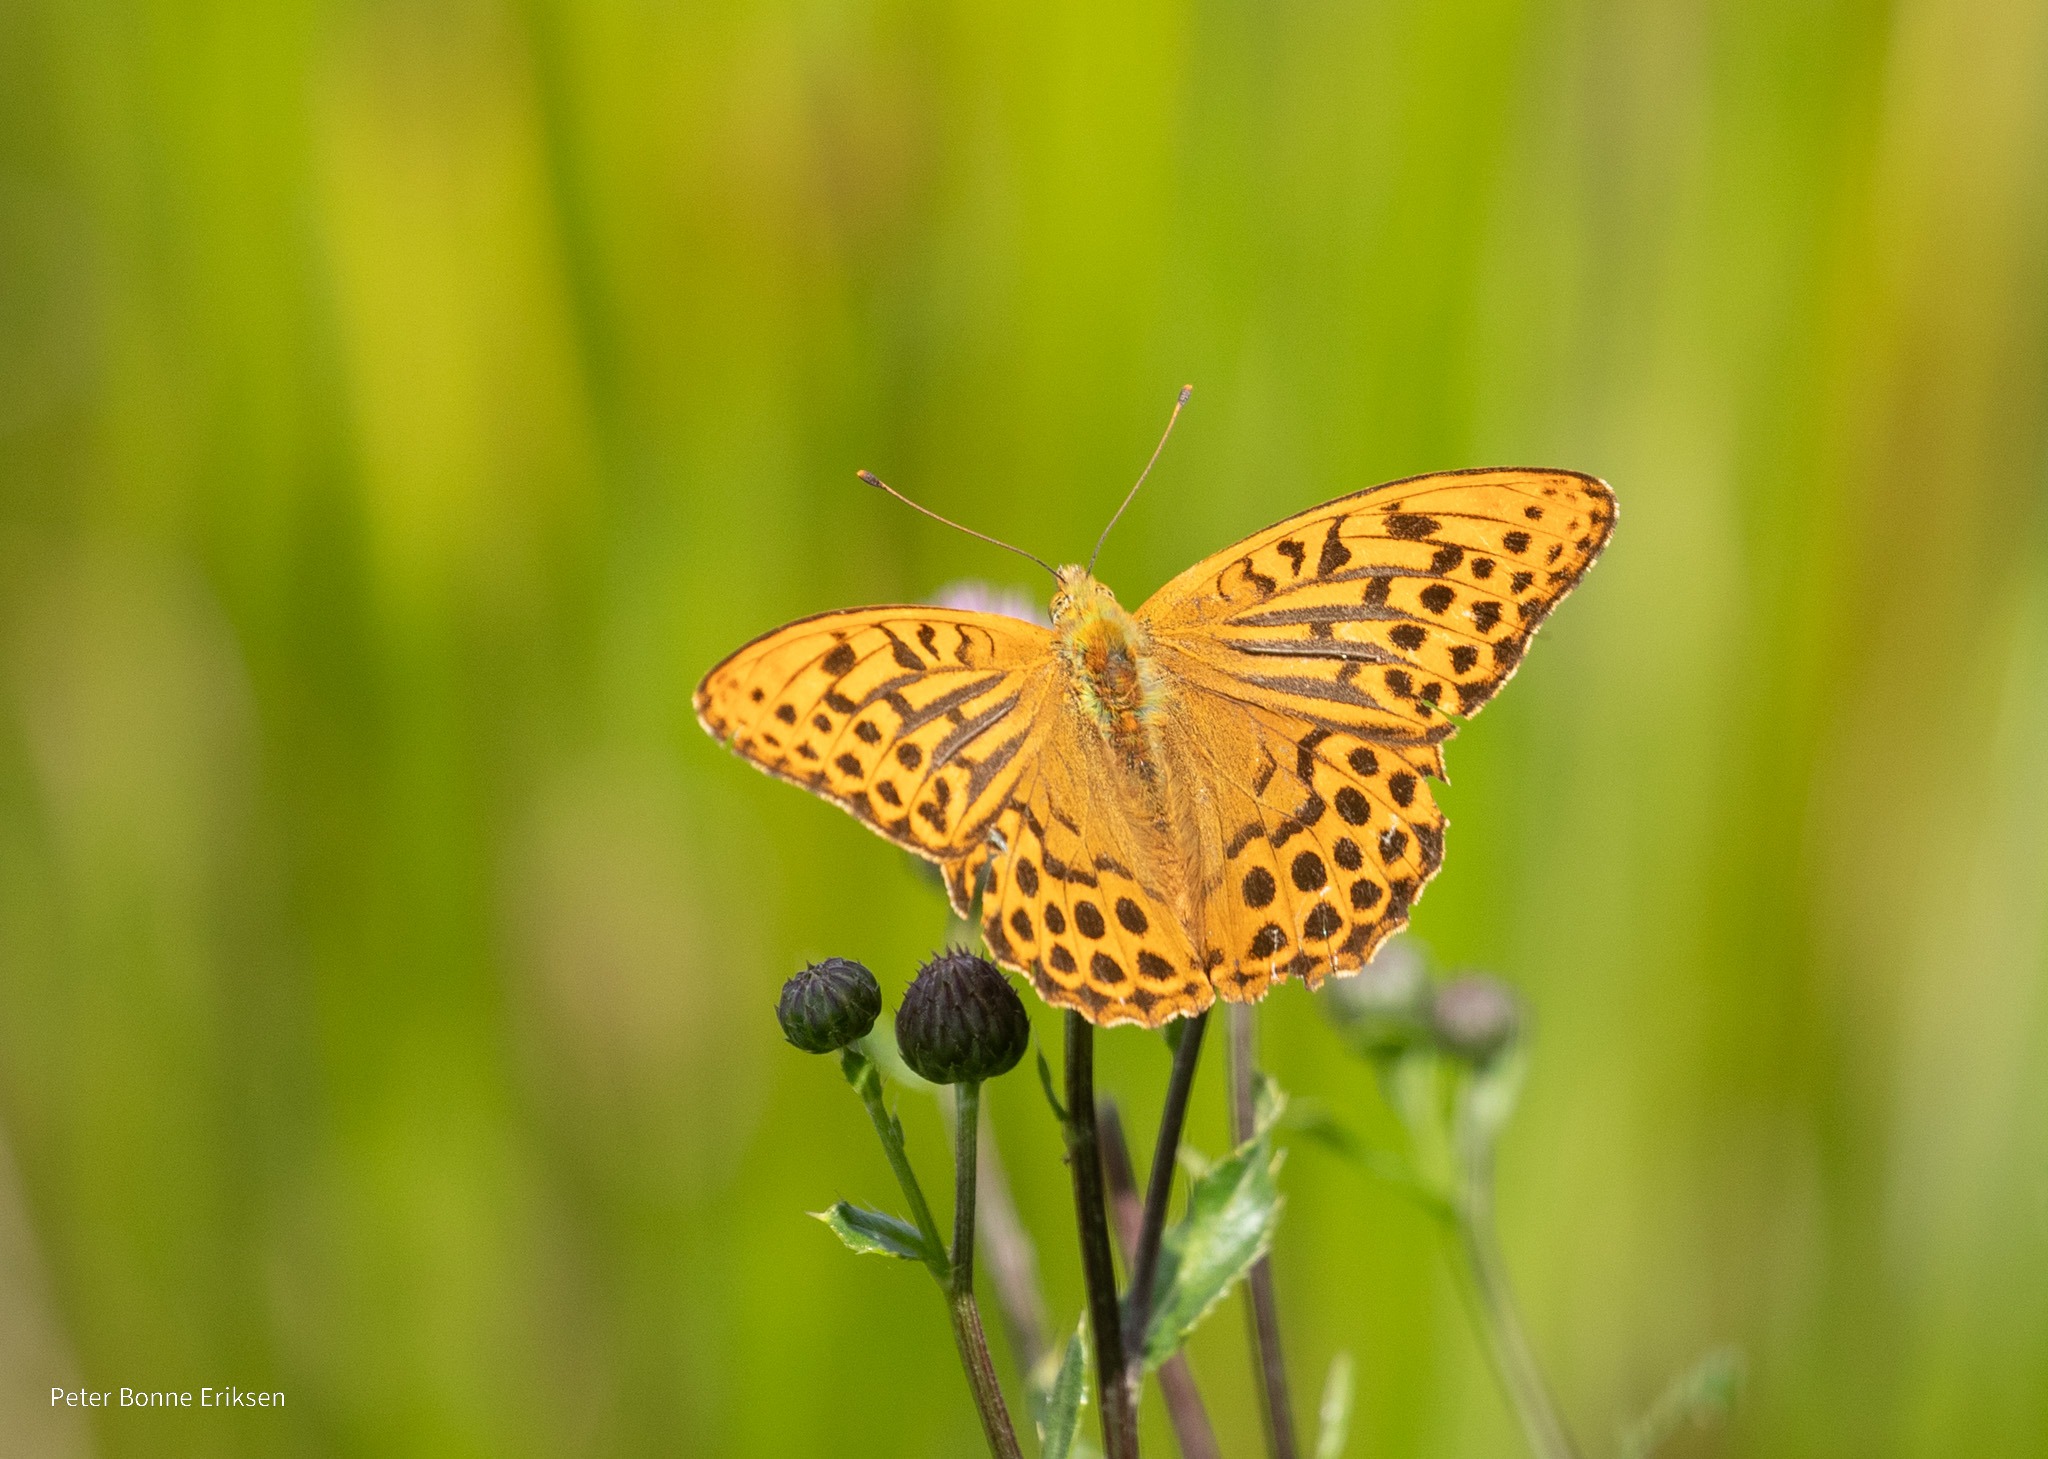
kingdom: Animalia
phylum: Arthropoda
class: Insecta
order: Lepidoptera
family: Nymphalidae
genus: Argynnis
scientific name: Argynnis paphia
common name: Kejserkåbe
